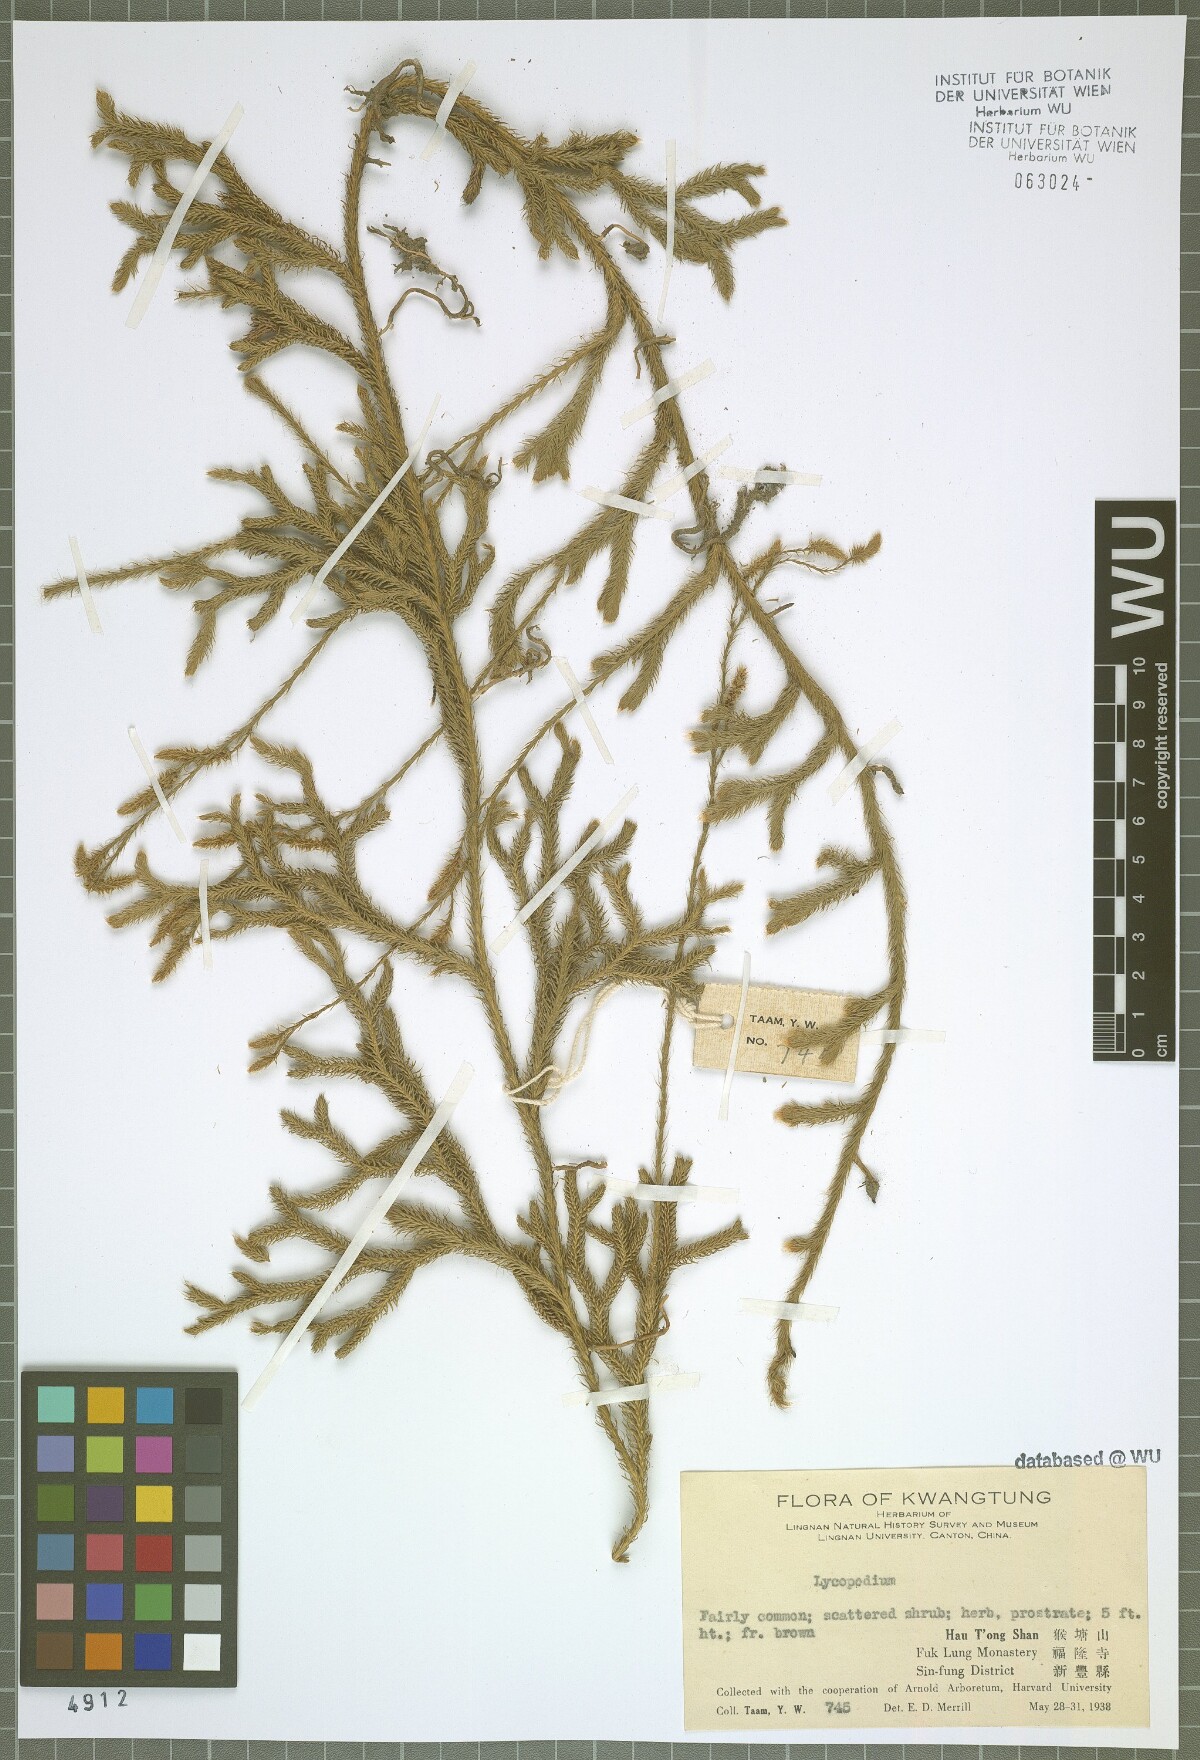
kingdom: Plantae
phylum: Tracheophyta
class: Lycopodiopsida
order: Lycopodiales
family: Lycopodiaceae
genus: Lycopodium
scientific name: Lycopodium
